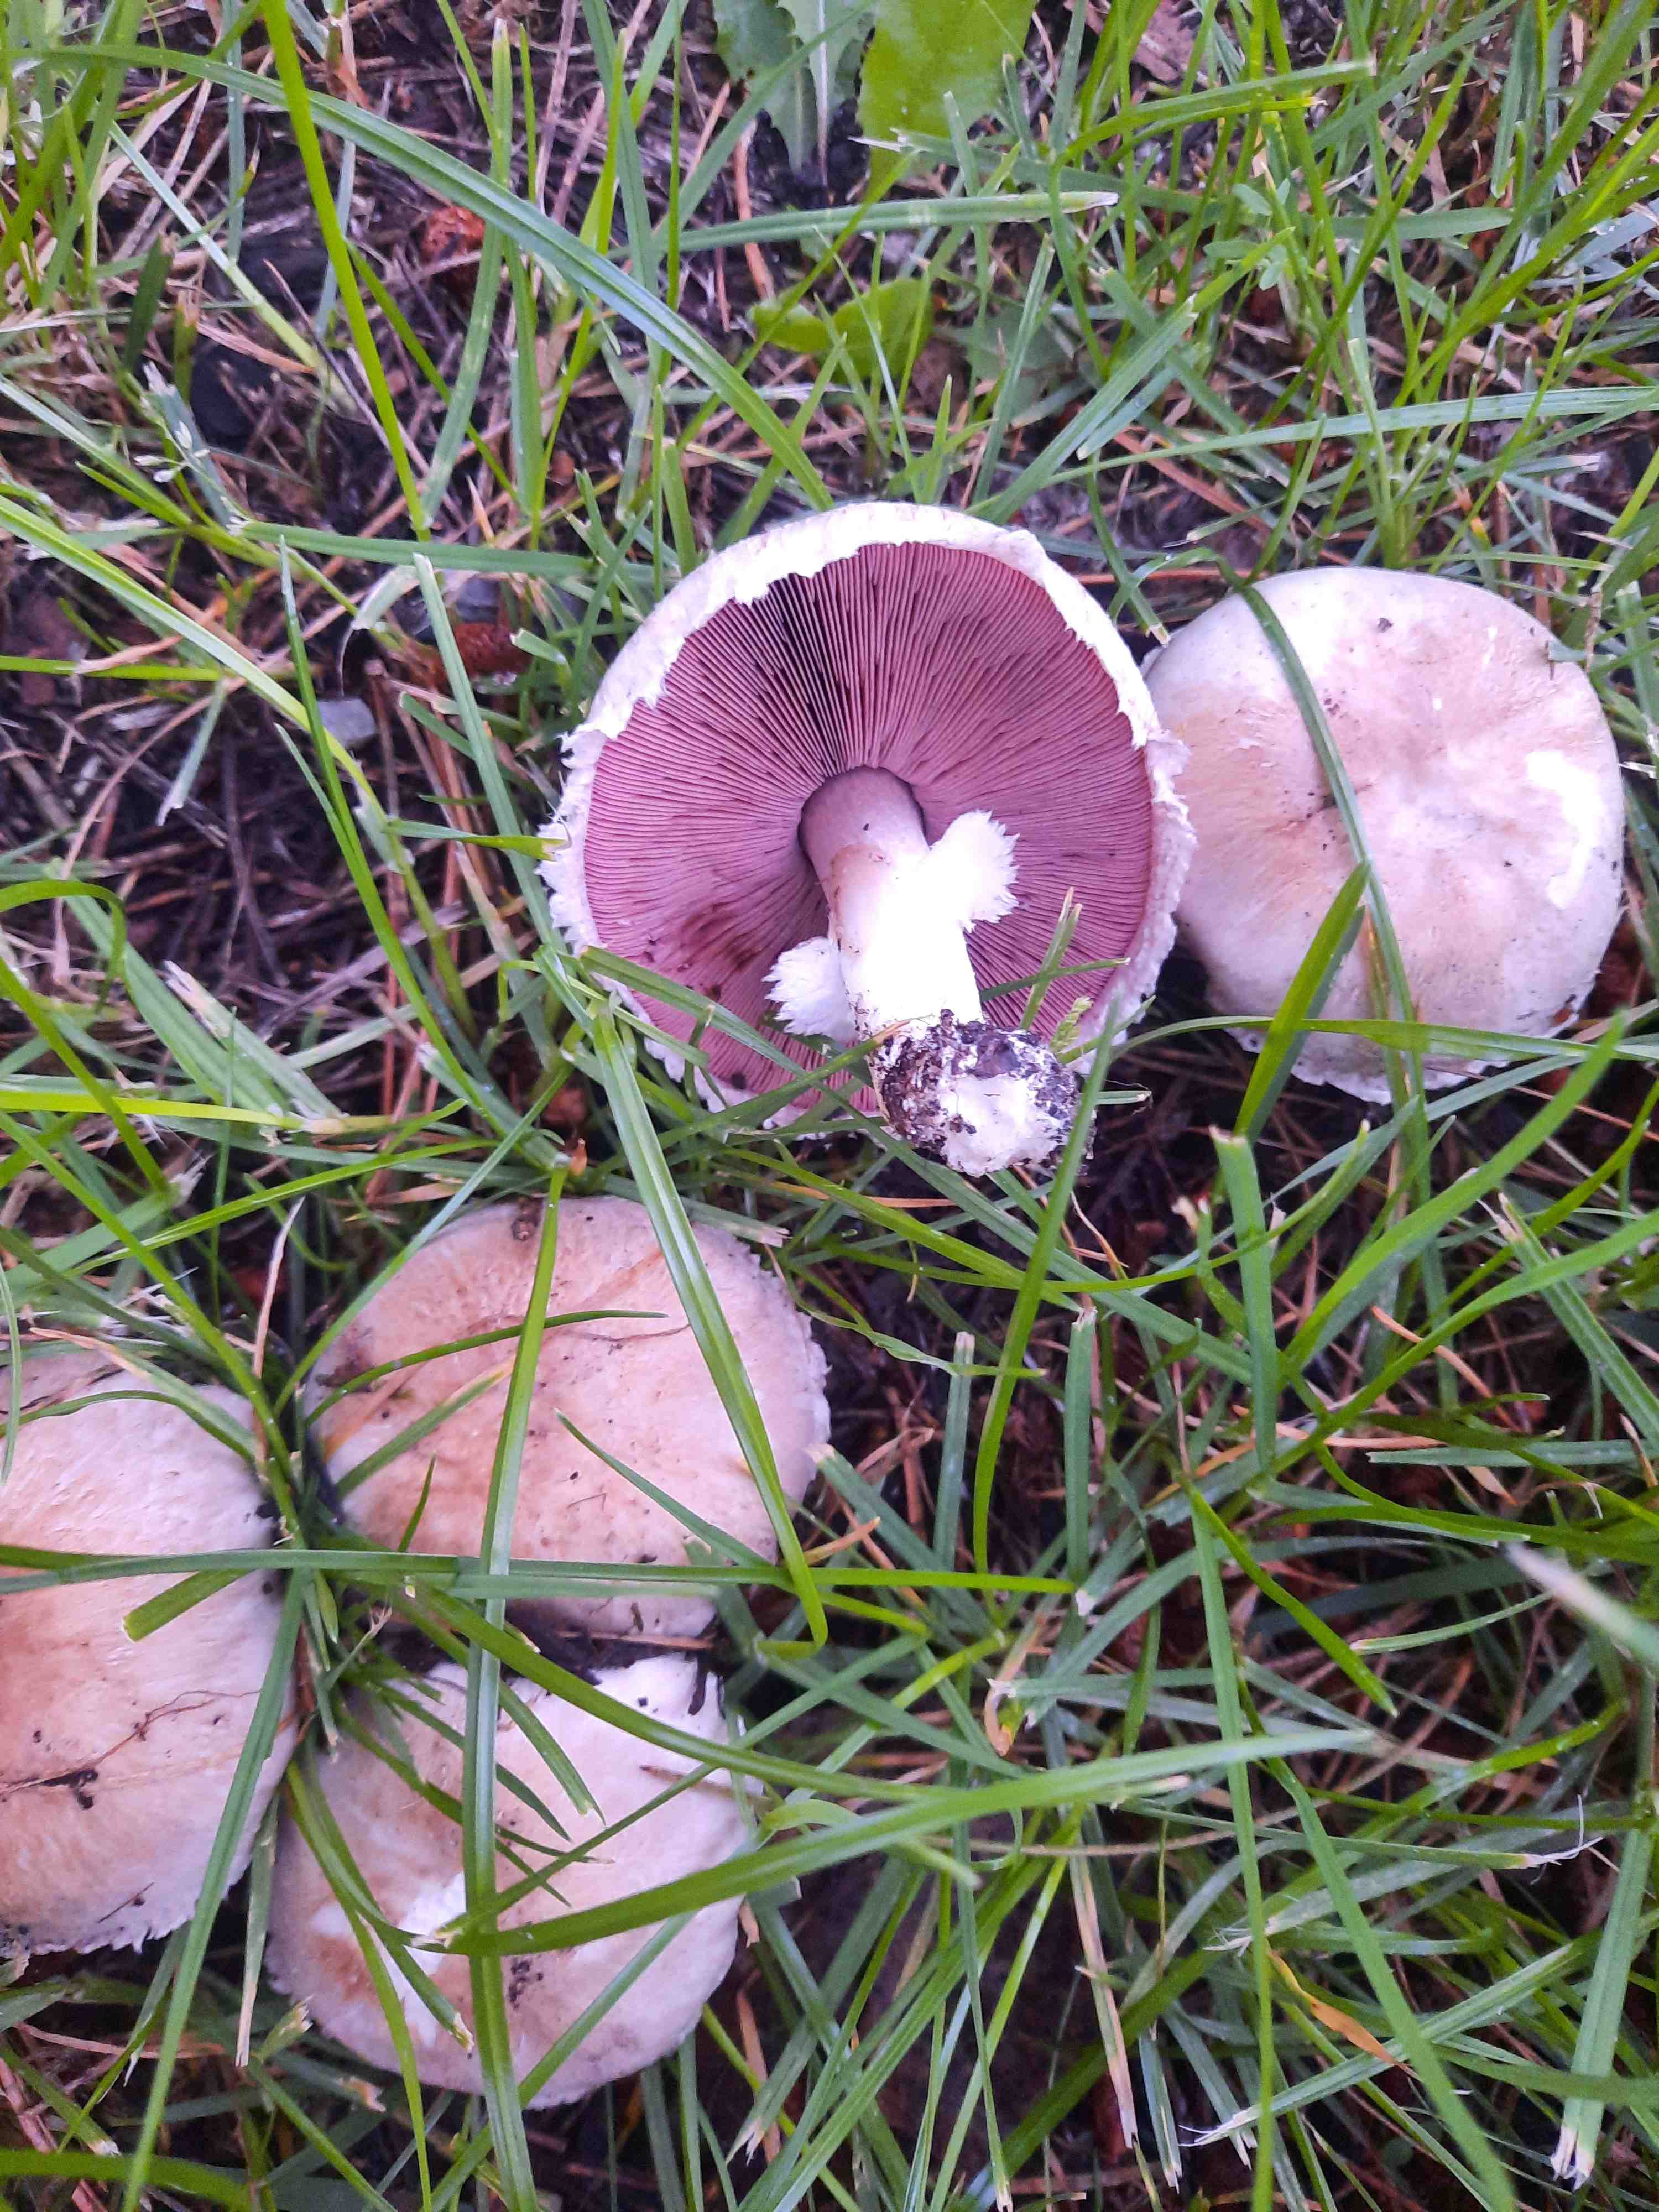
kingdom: Fungi
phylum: Basidiomycota
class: Agaricomycetes
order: Agaricales
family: Agaricaceae
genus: Agaricus
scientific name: Agaricus
